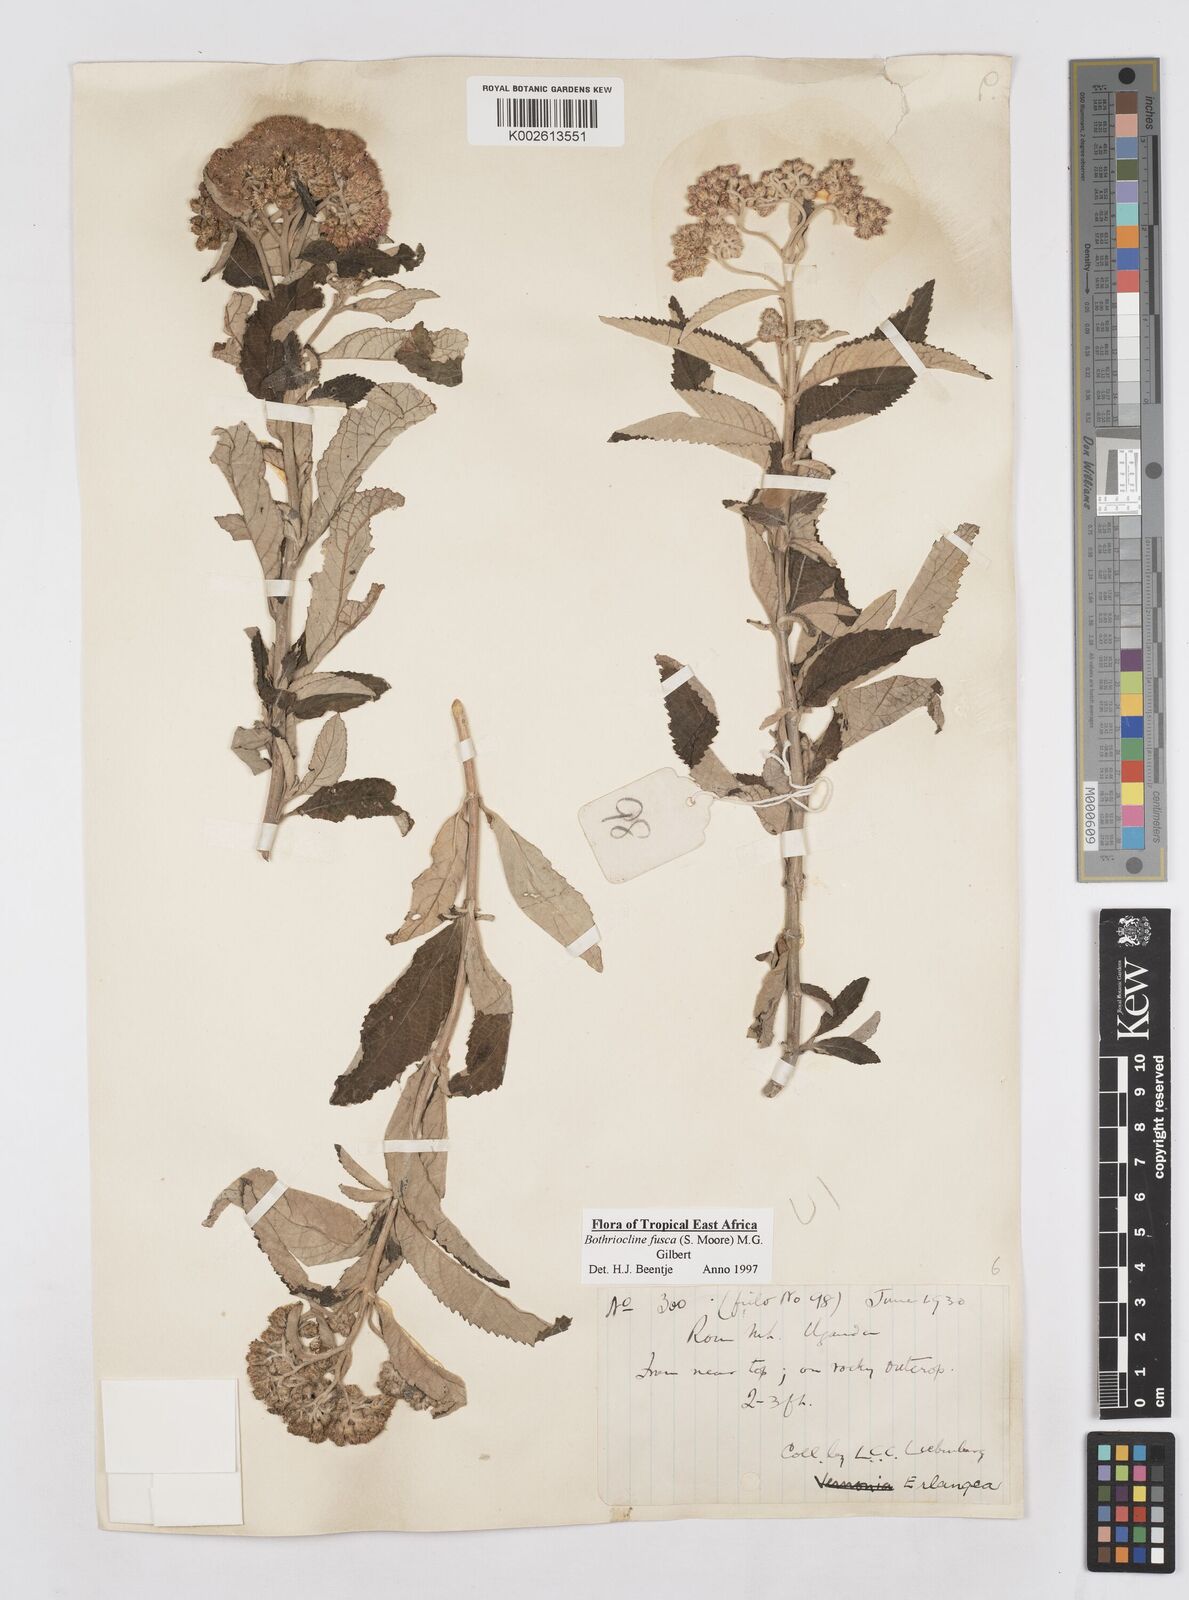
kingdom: Plantae
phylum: Tracheophyta
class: Magnoliopsida
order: Asterales
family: Asteraceae
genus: Bothriocline
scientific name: Bothriocline fusca
